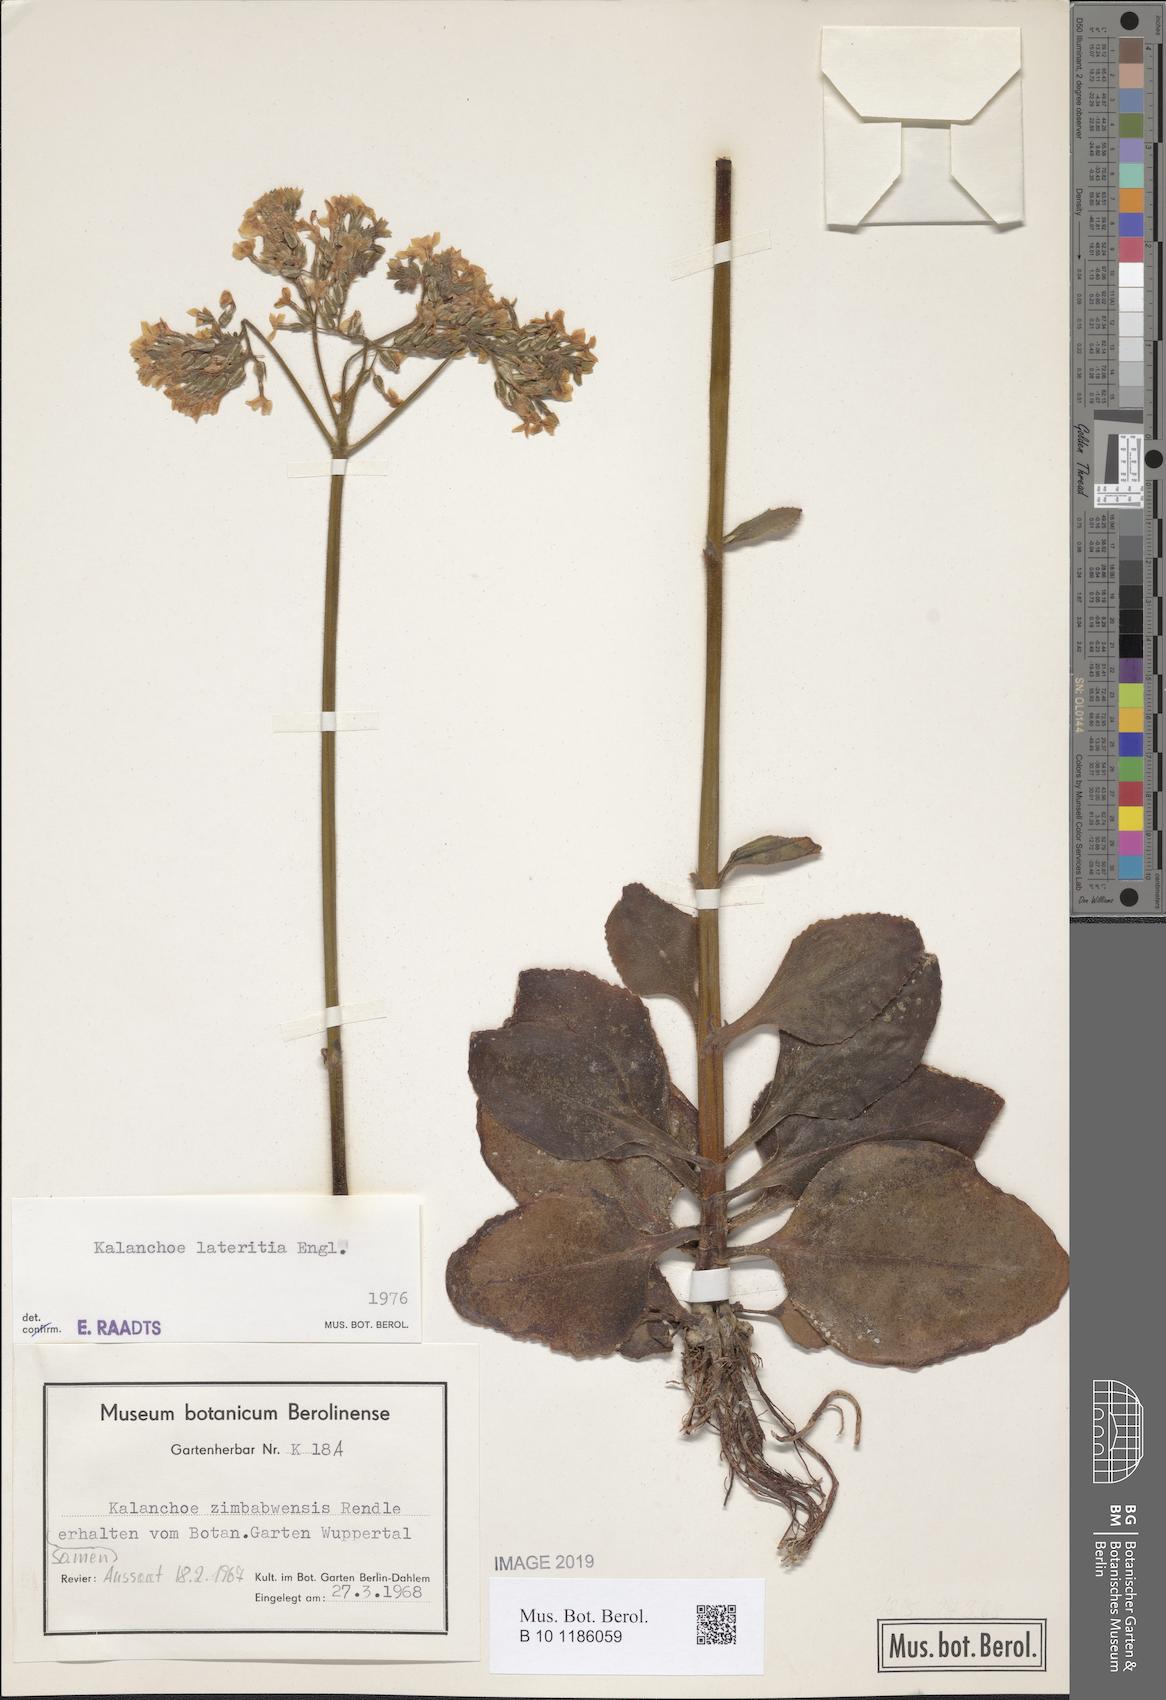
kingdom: Plantae
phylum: Tracheophyta
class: Magnoliopsida
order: Saxifragales
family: Crassulaceae
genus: Kalanchoe
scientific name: Kalanchoe lateritia
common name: Kalanchoe
